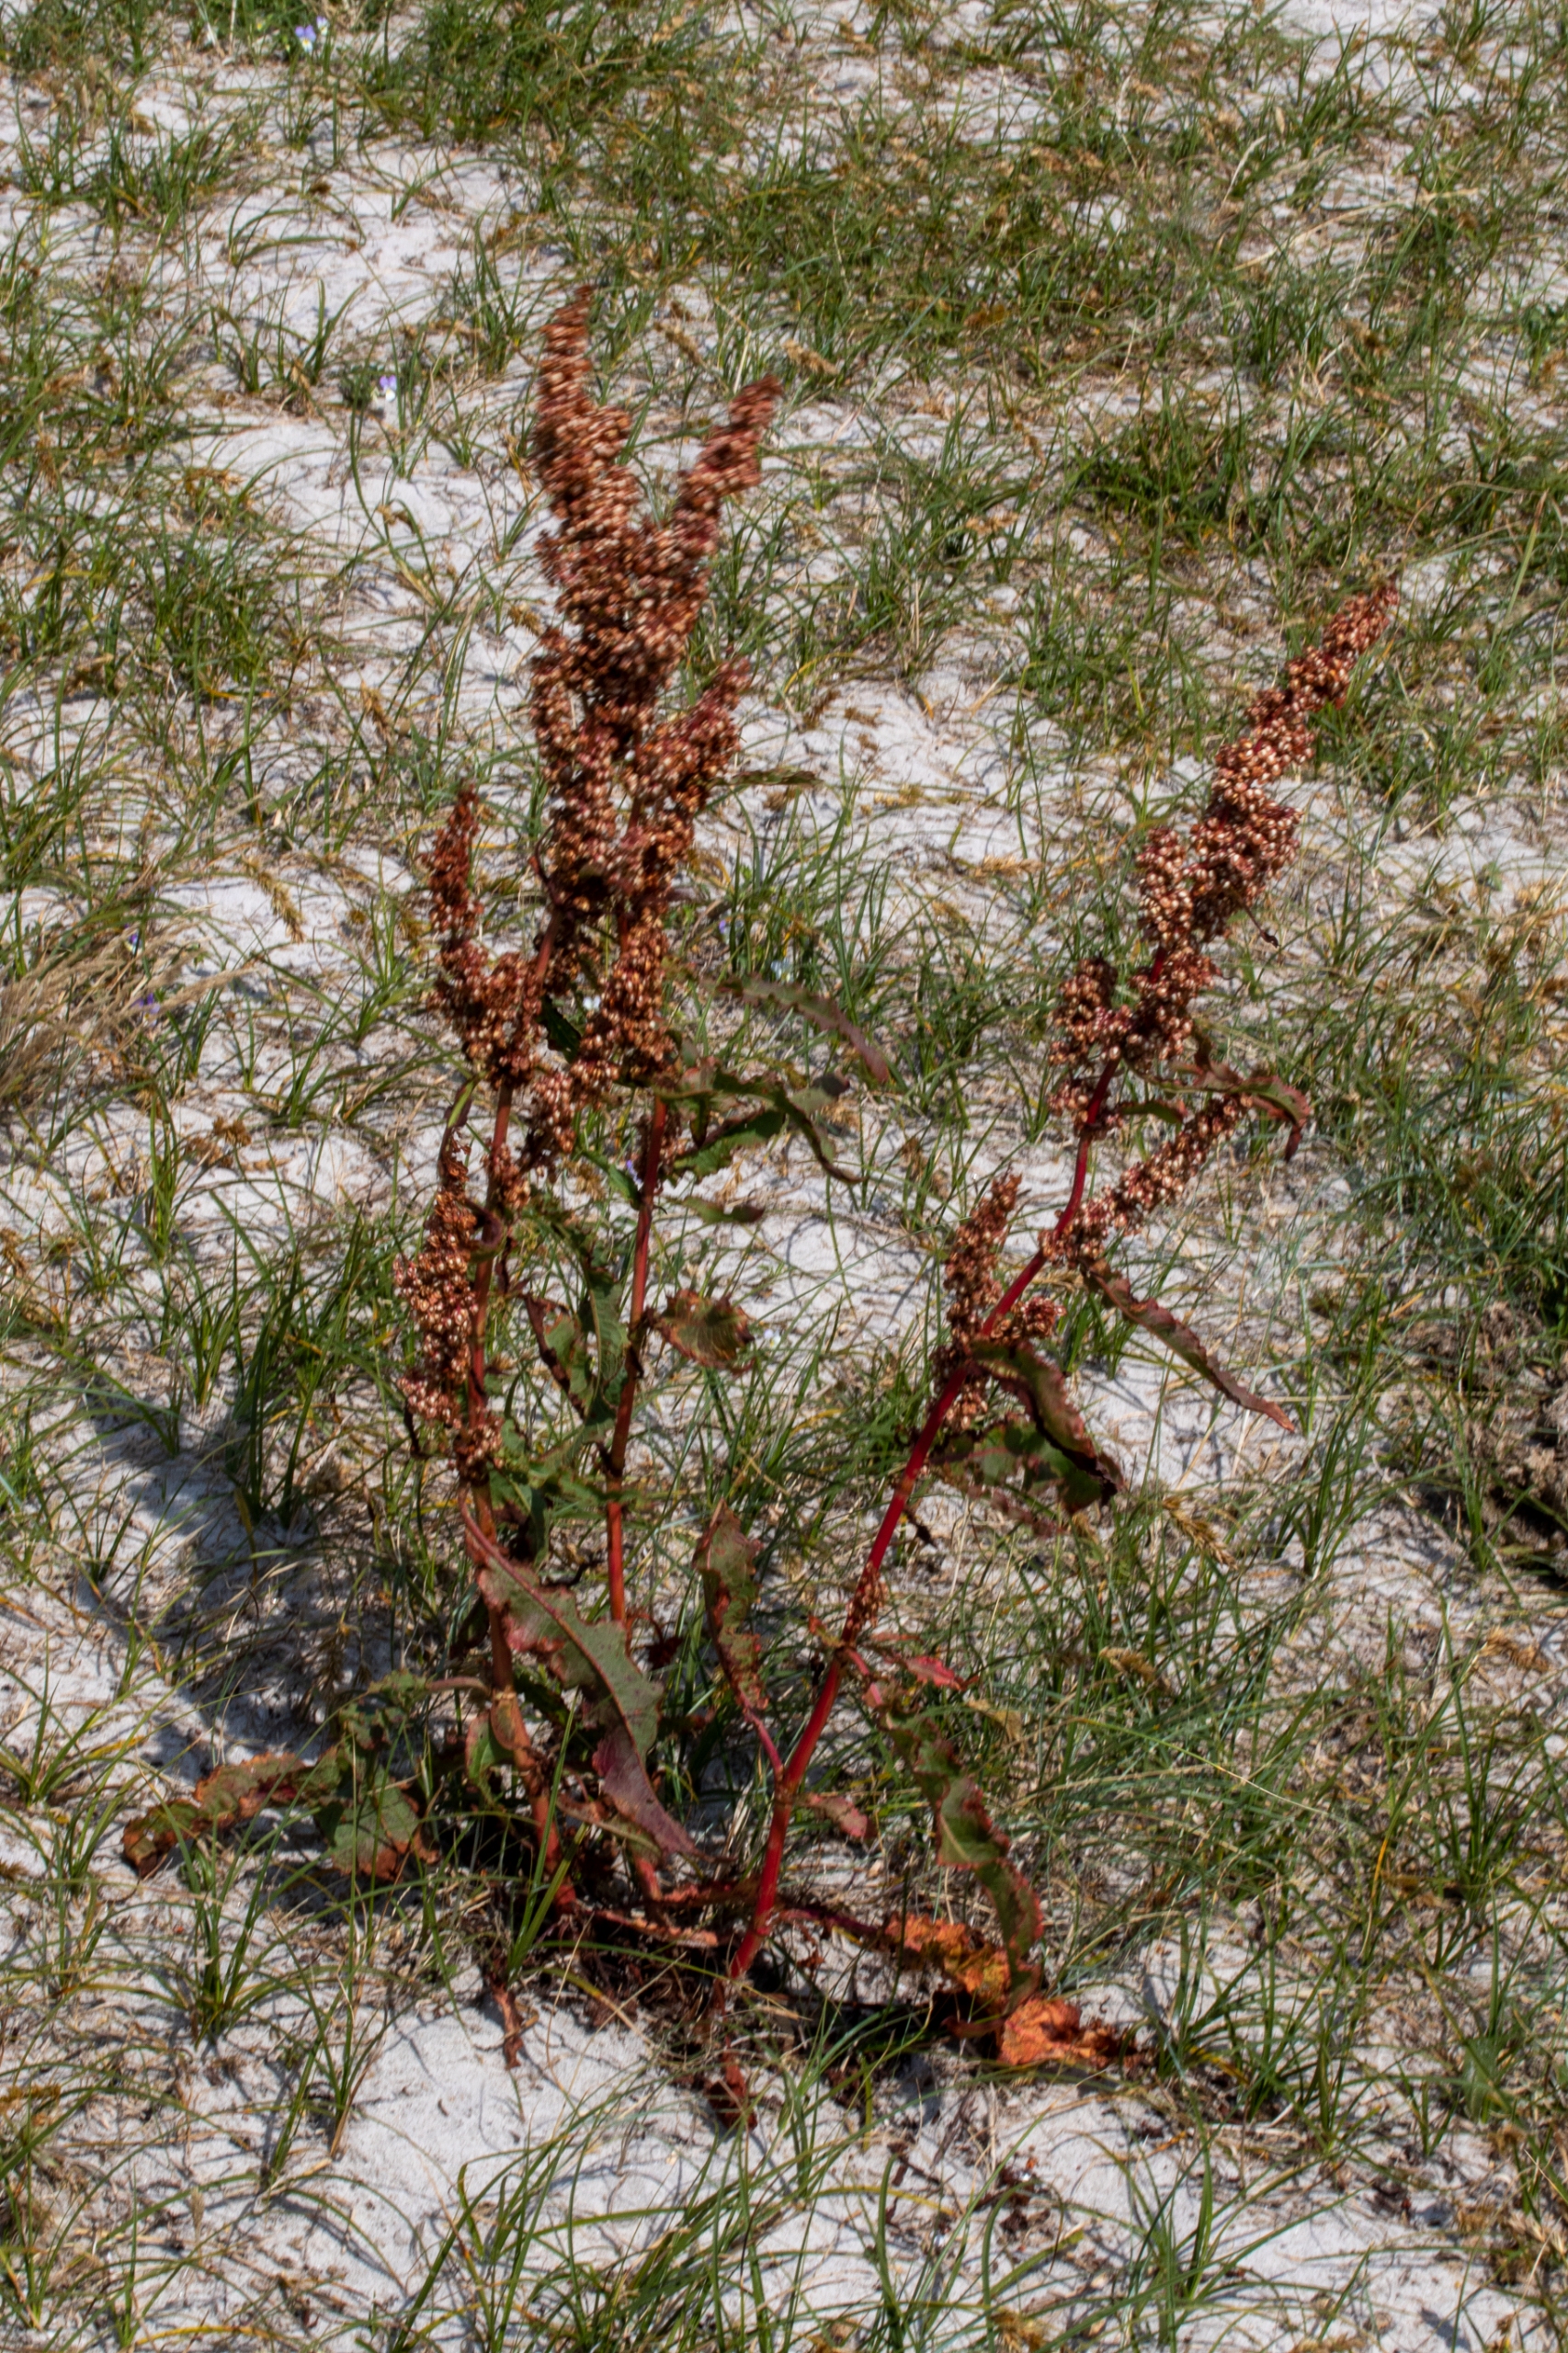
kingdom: Plantae
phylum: Tracheophyta
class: Magnoliopsida
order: Caryophyllales
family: Polygonaceae
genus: Rumex
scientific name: Rumex crispus
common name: Kruset skræppe
